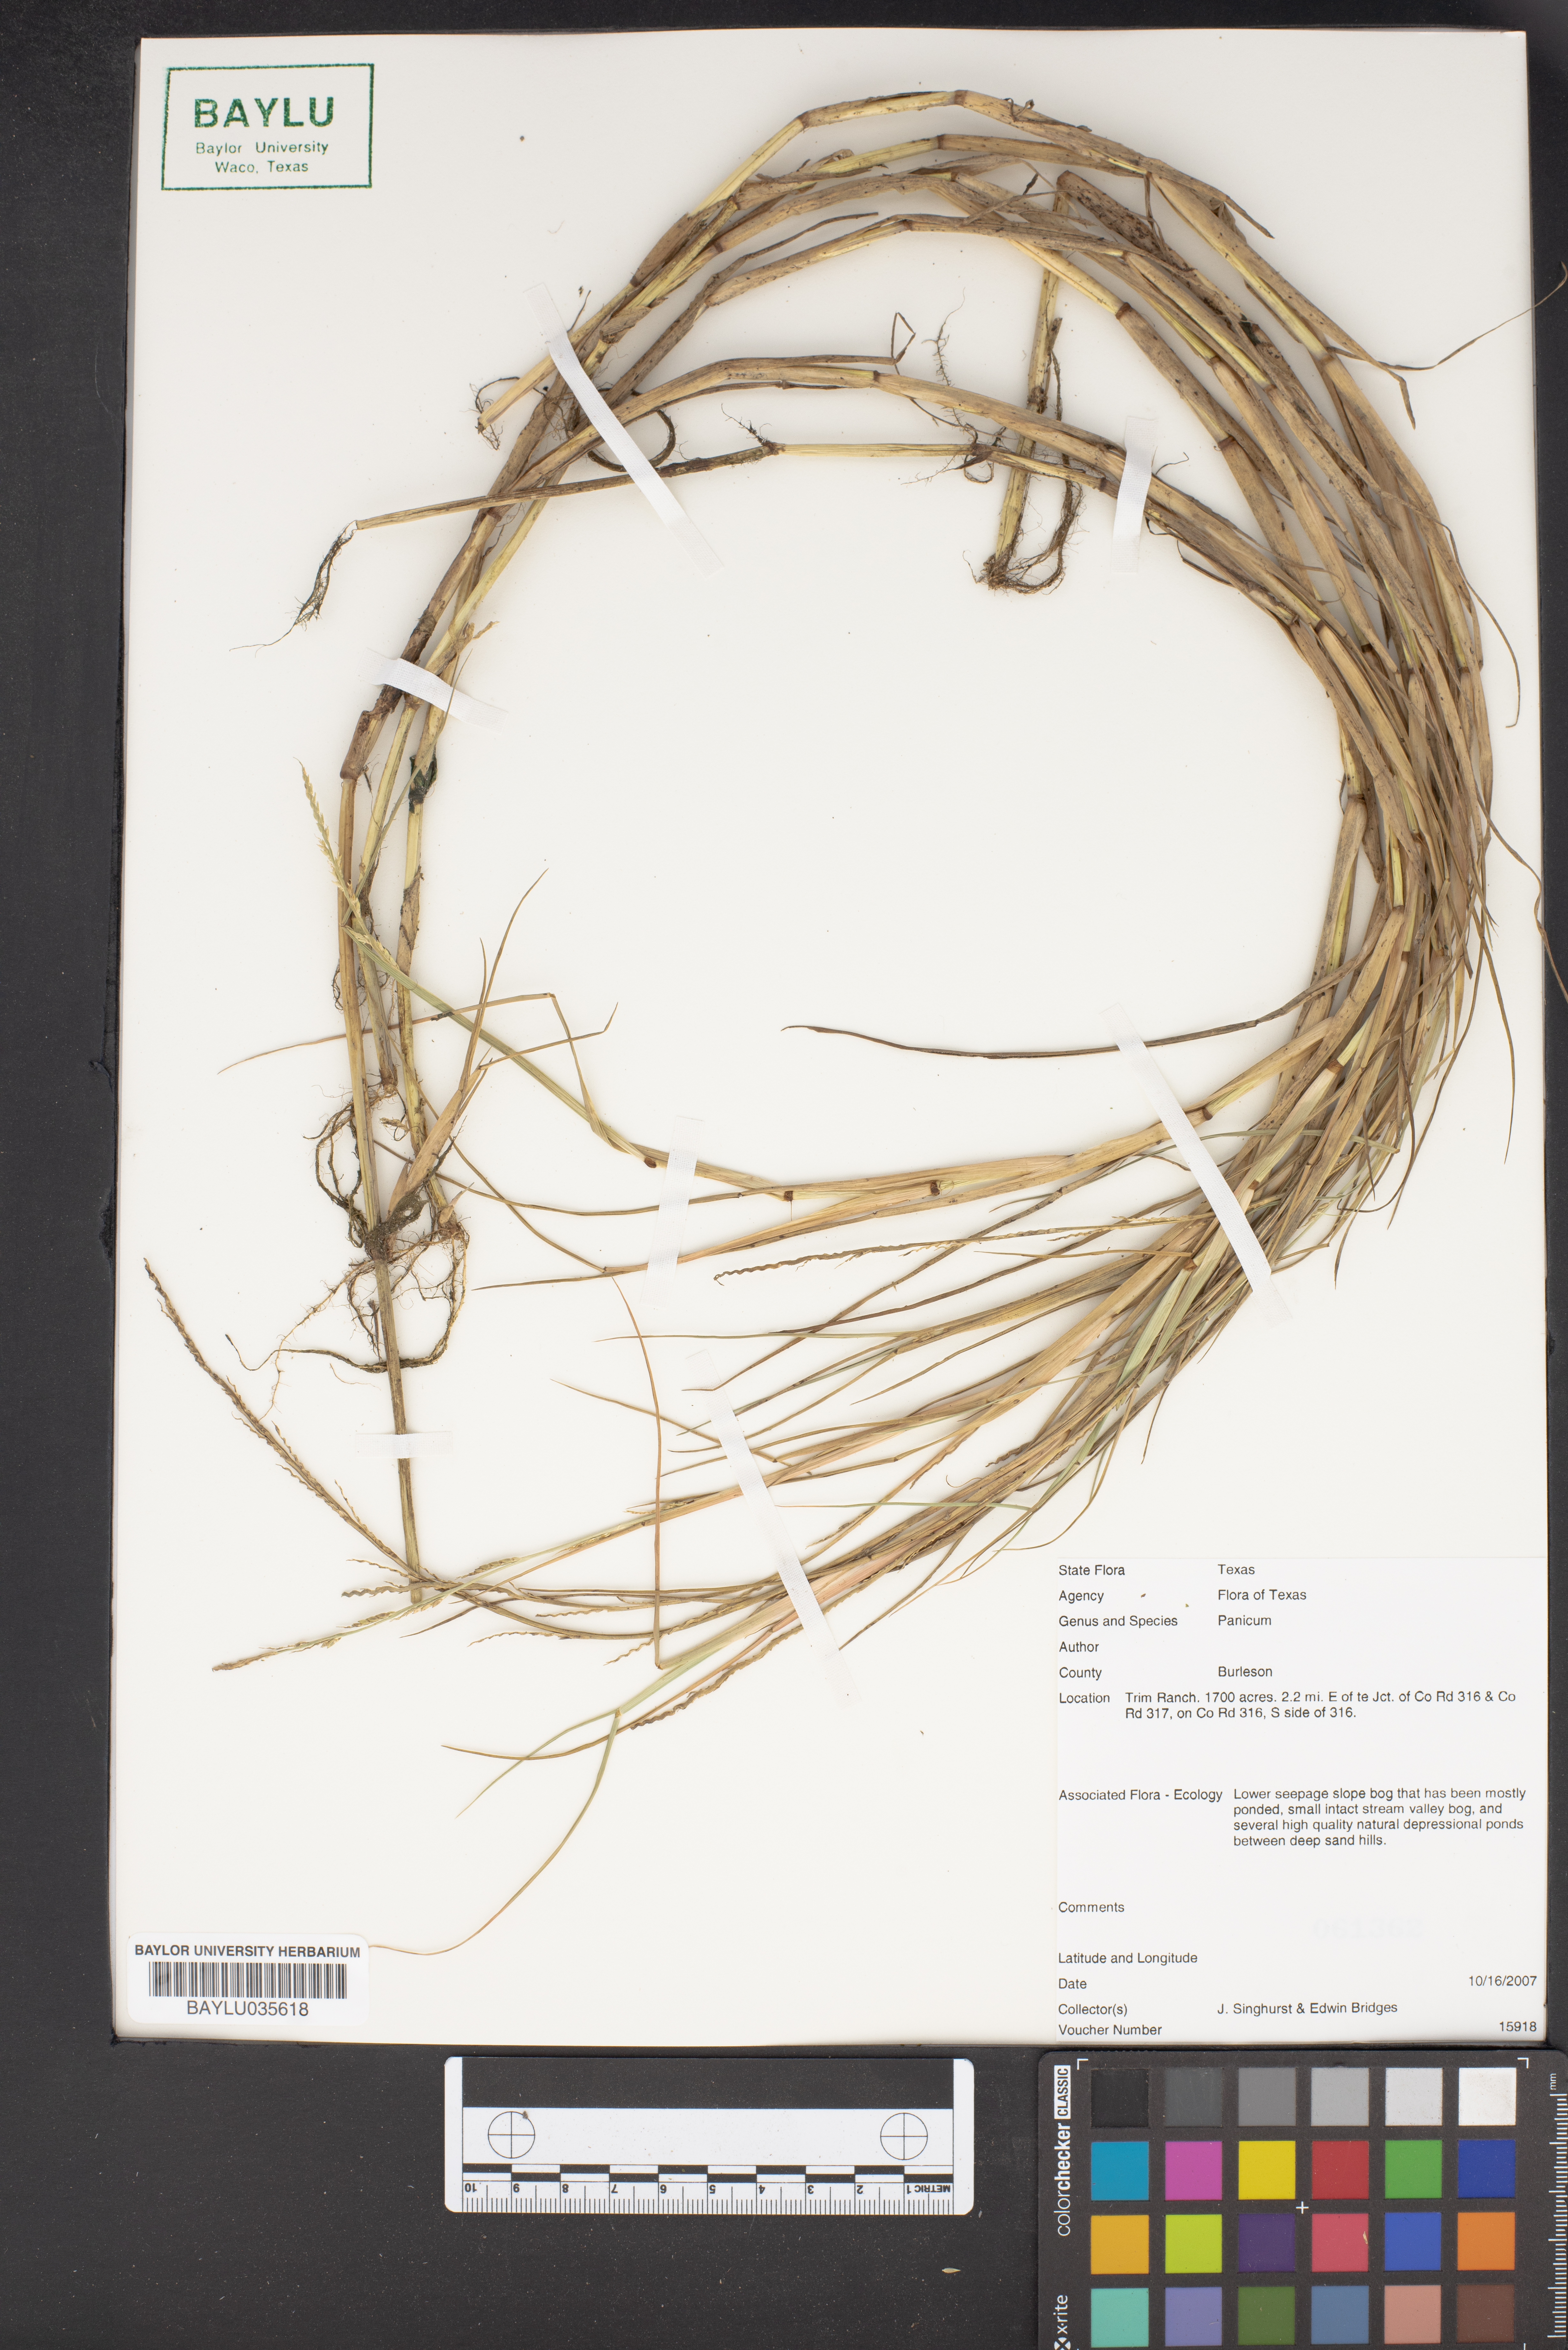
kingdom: Plantae
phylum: Tracheophyta
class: Liliopsida
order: Poales
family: Poaceae
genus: Panicum
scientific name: Panicum
